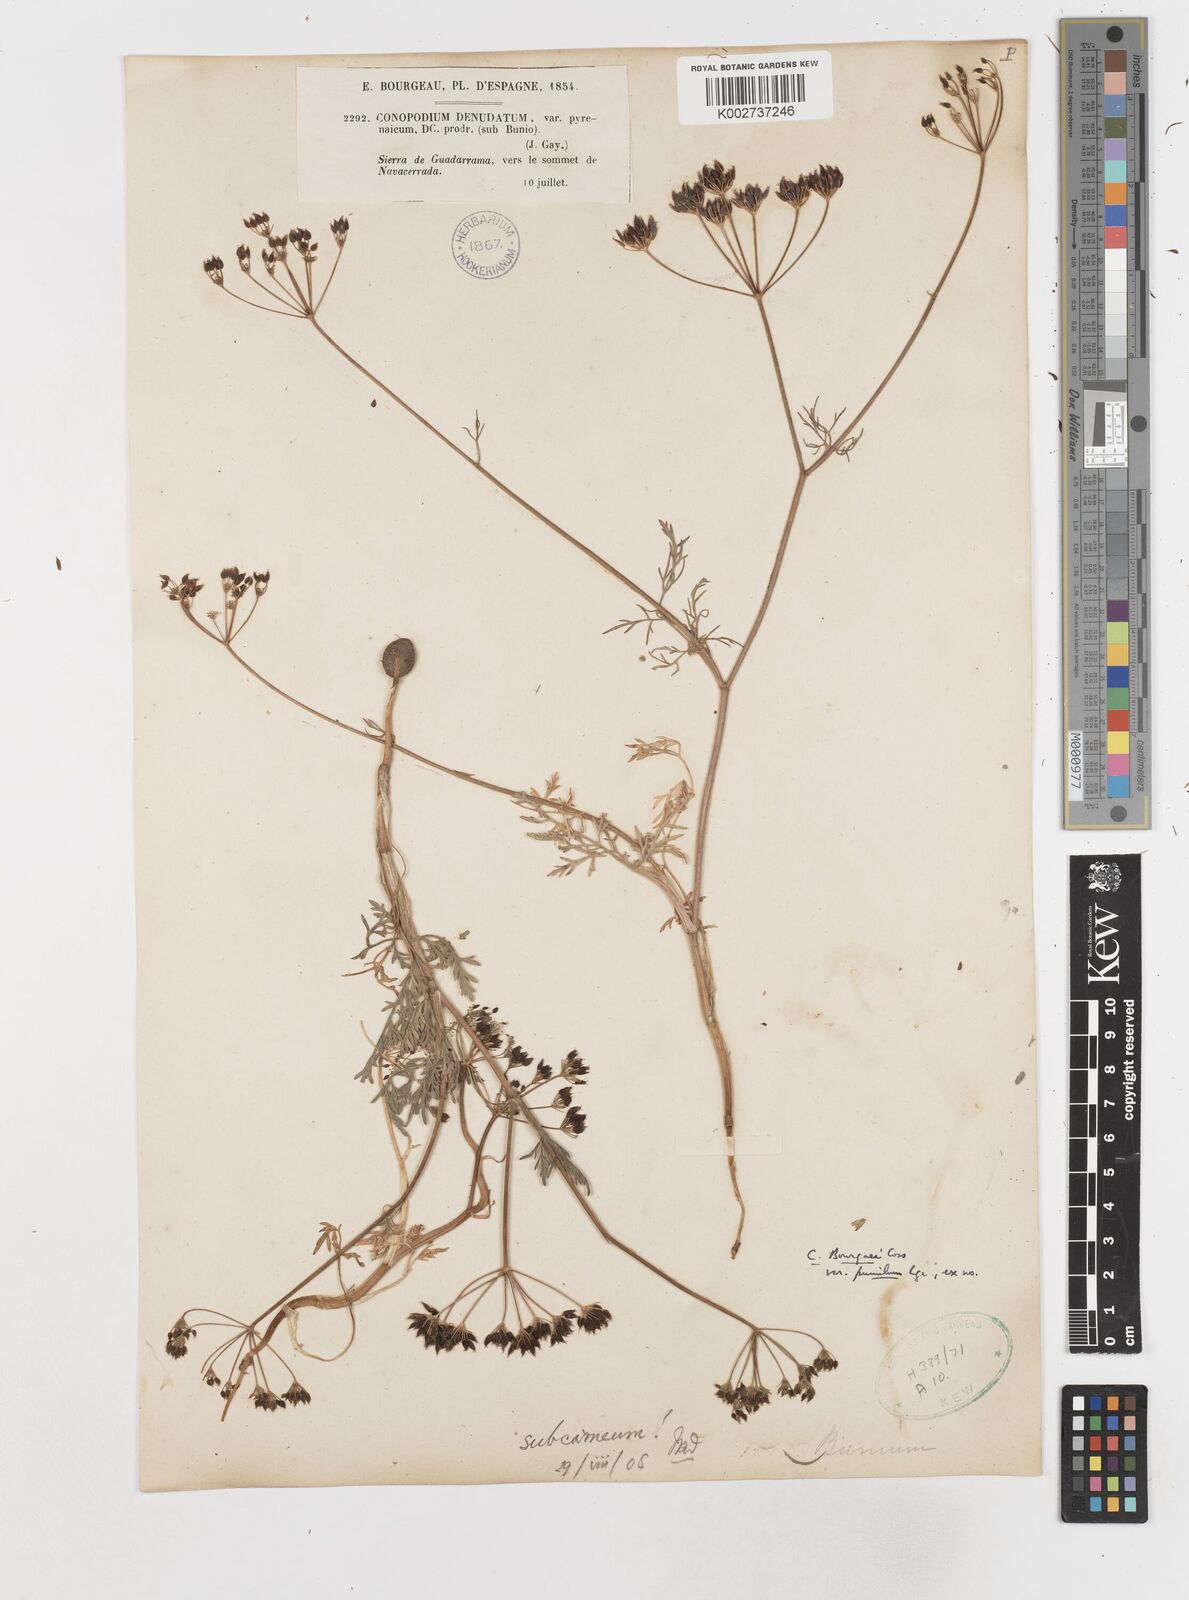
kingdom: Plantae
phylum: Tracheophyta
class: Magnoliopsida
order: Apiales
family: Apiaceae
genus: Conopodium
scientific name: Conopodium pyrenaeum
